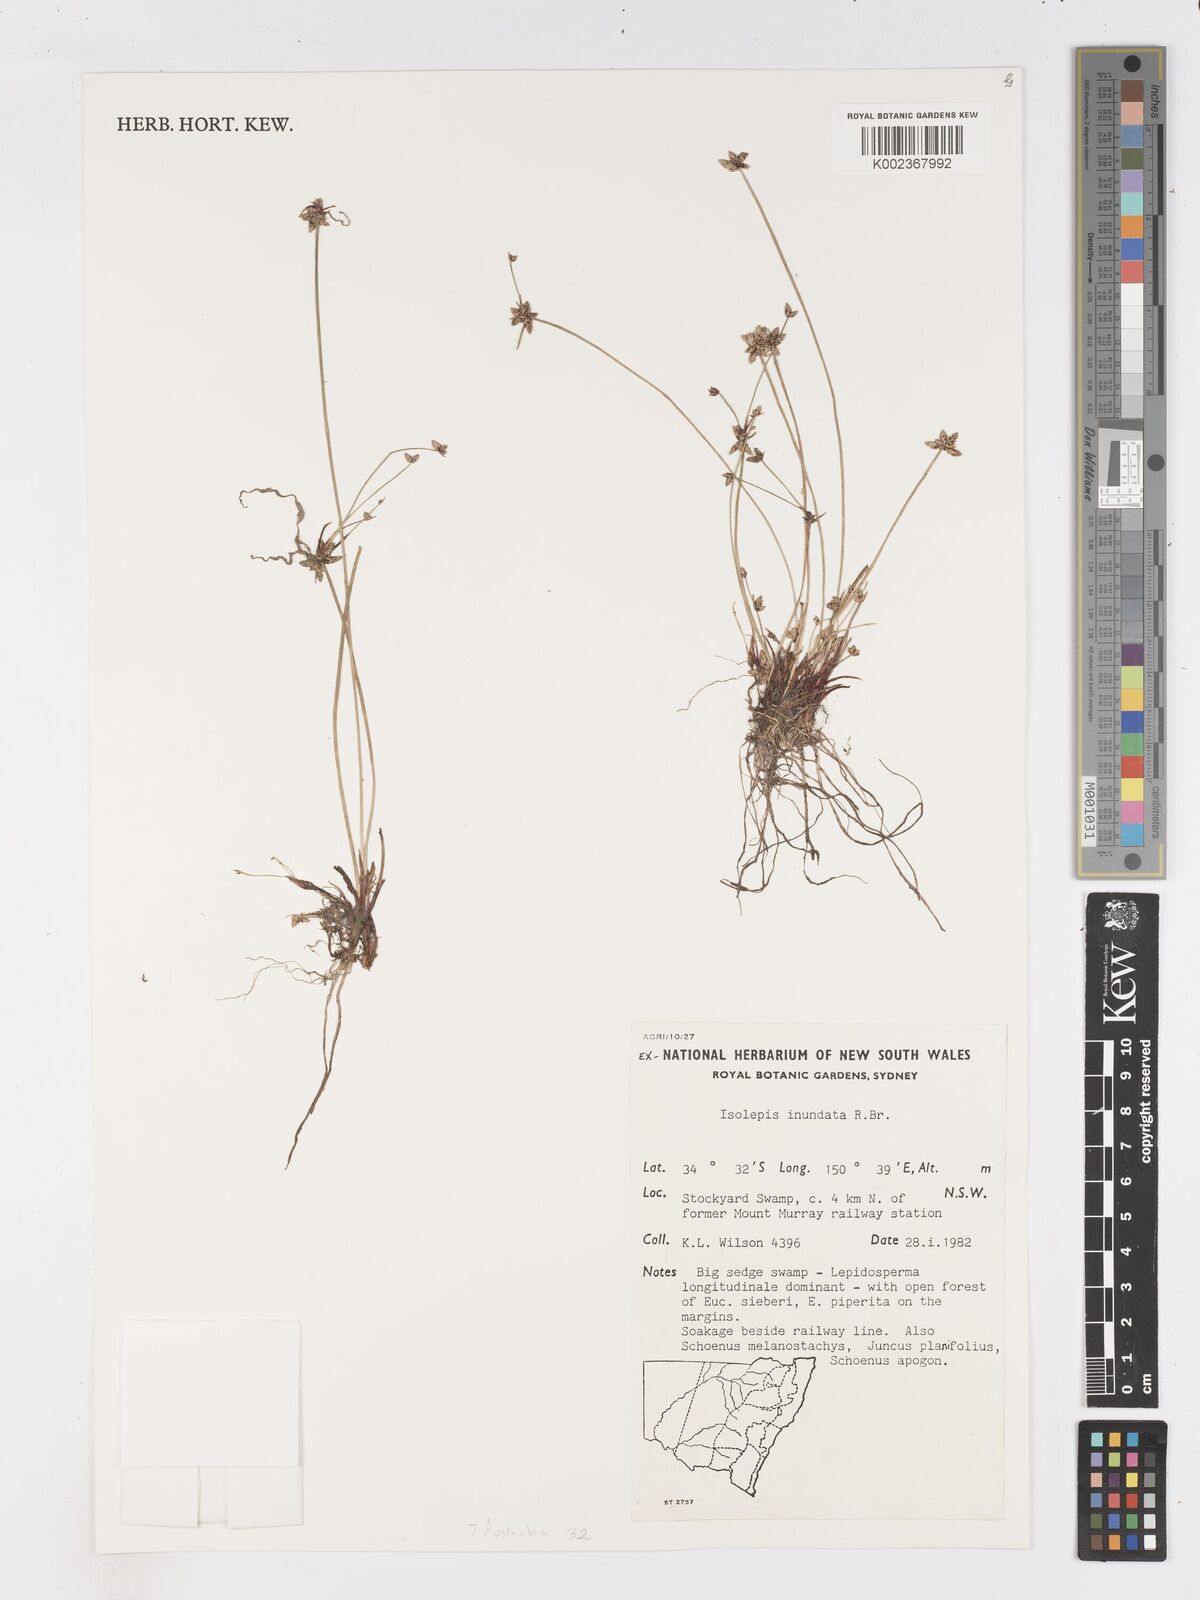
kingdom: Plantae
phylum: Tracheophyta
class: Liliopsida
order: Poales
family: Cyperaceae
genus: Isolepis
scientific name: Isolepis inundata
